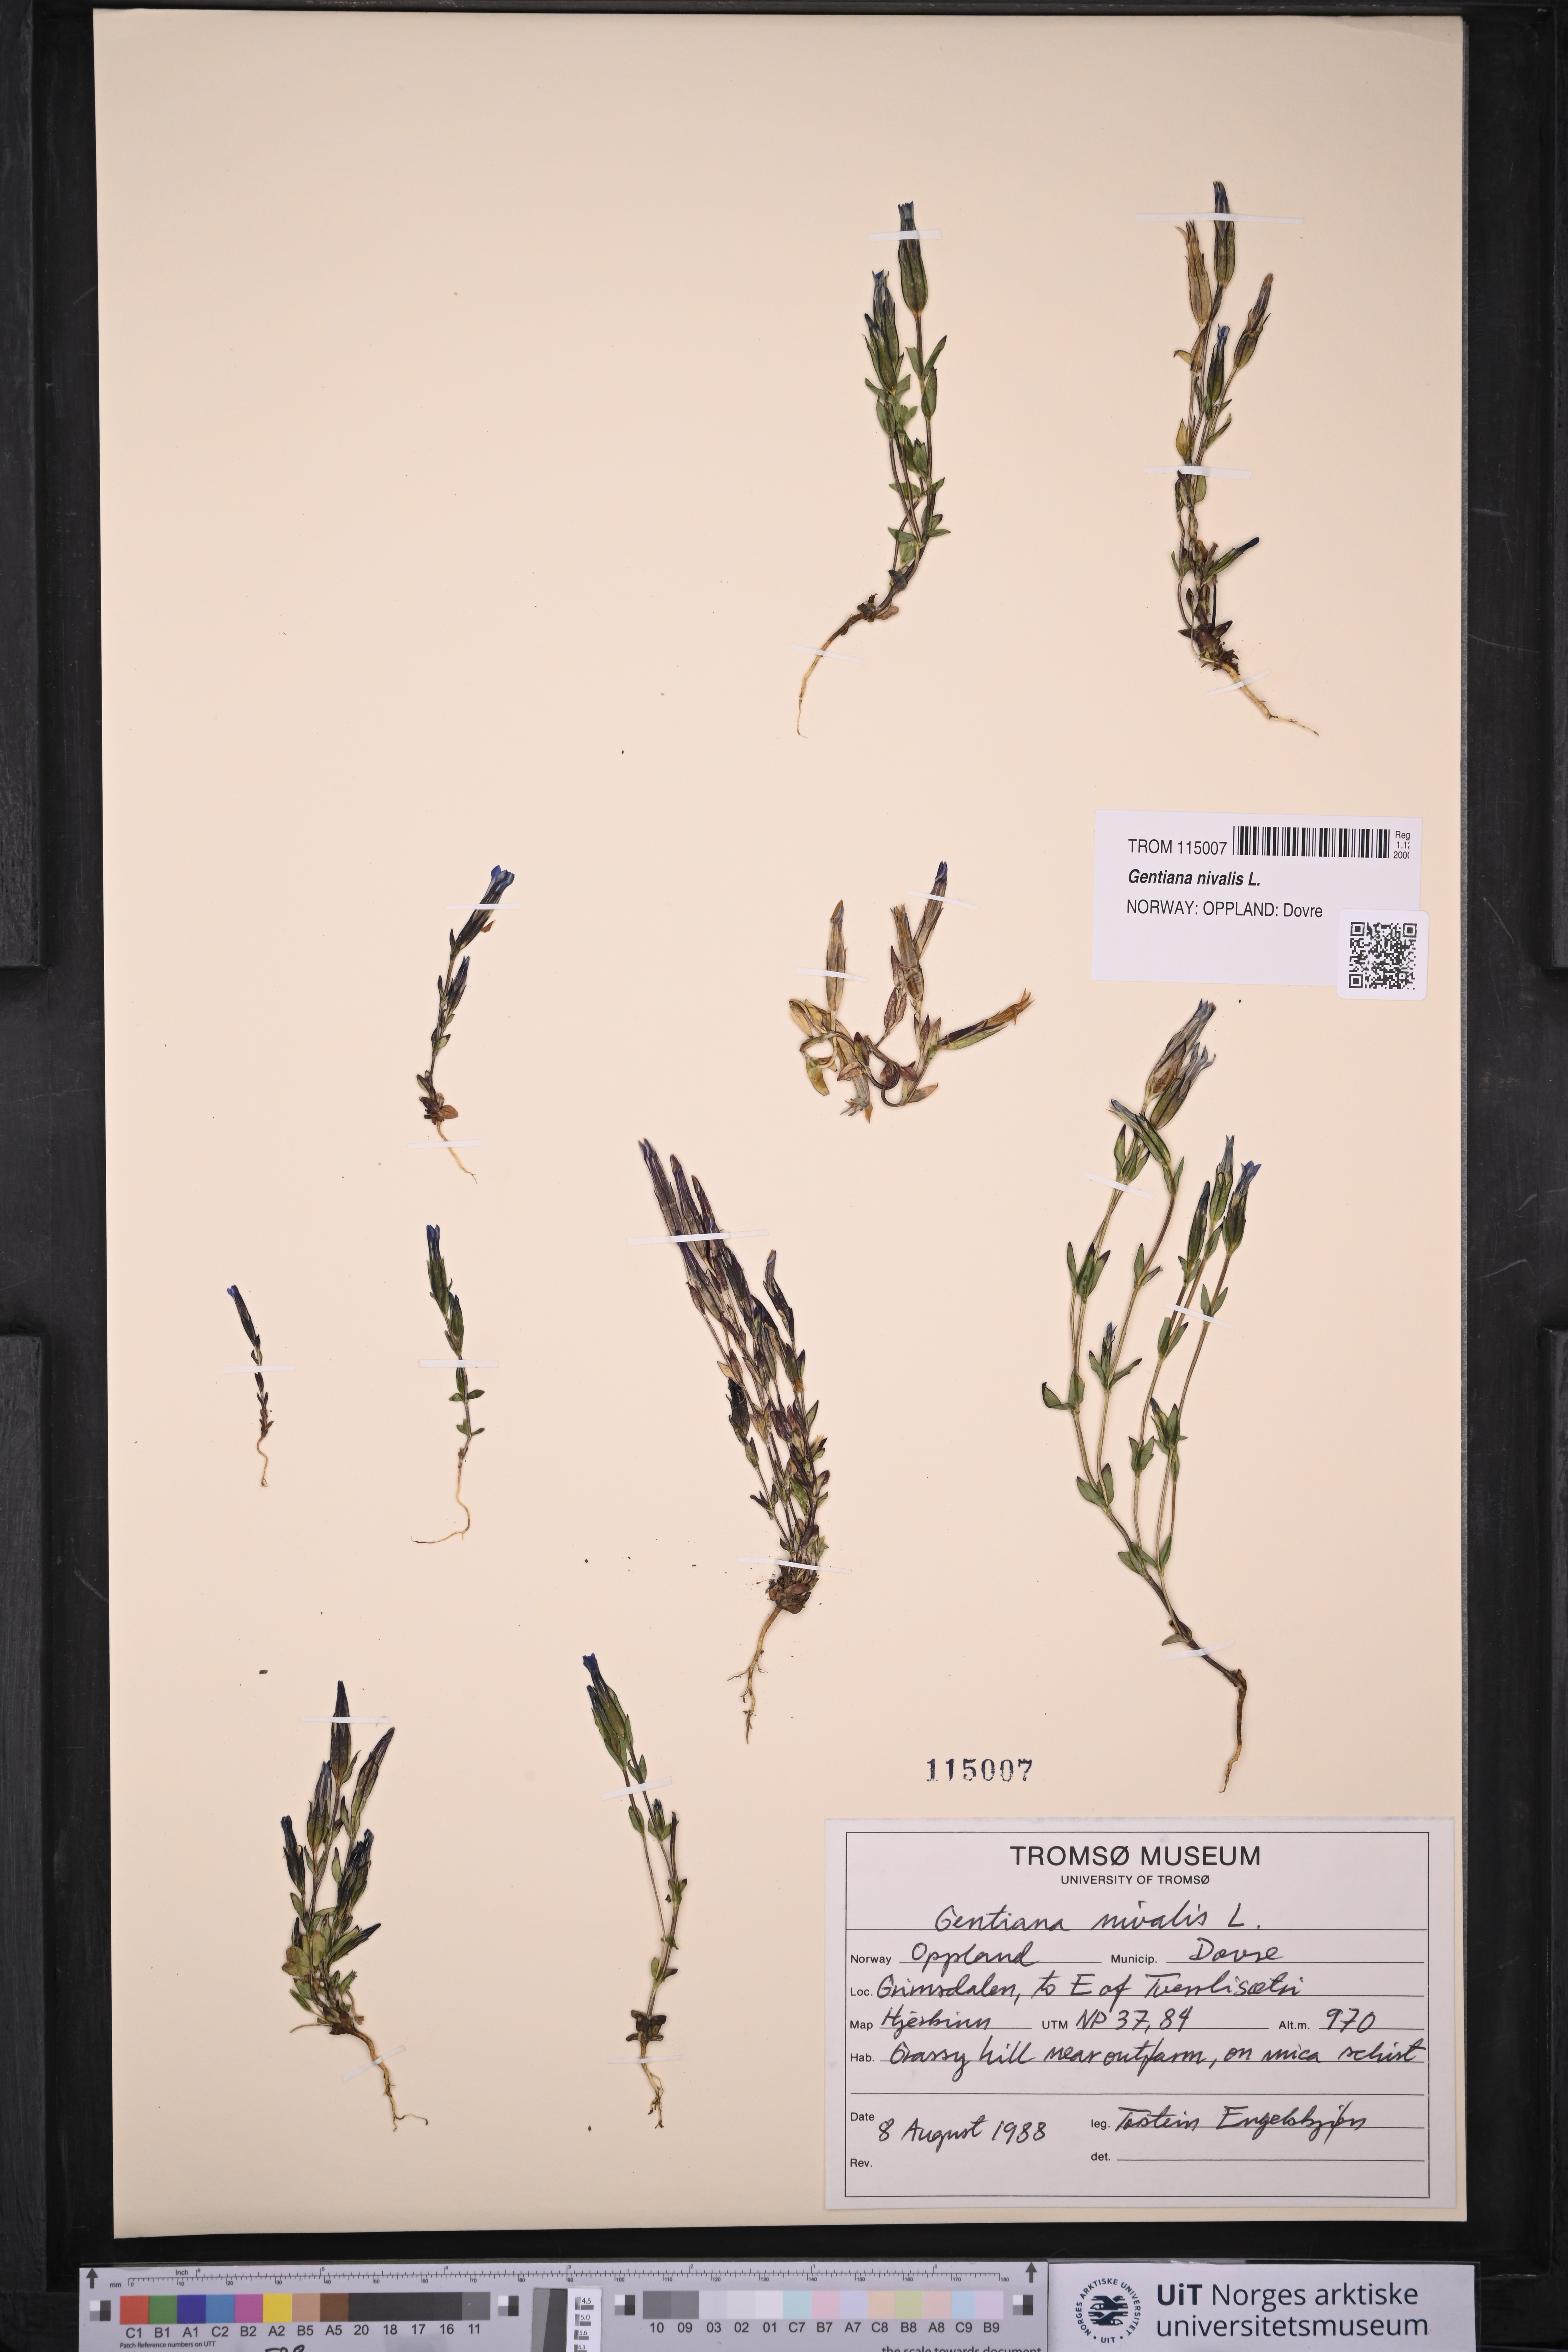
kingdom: Plantae
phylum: Tracheophyta
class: Magnoliopsida
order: Gentianales
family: Gentianaceae
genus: Gentiana
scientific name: Gentiana nivalis
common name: Alpine gentian
